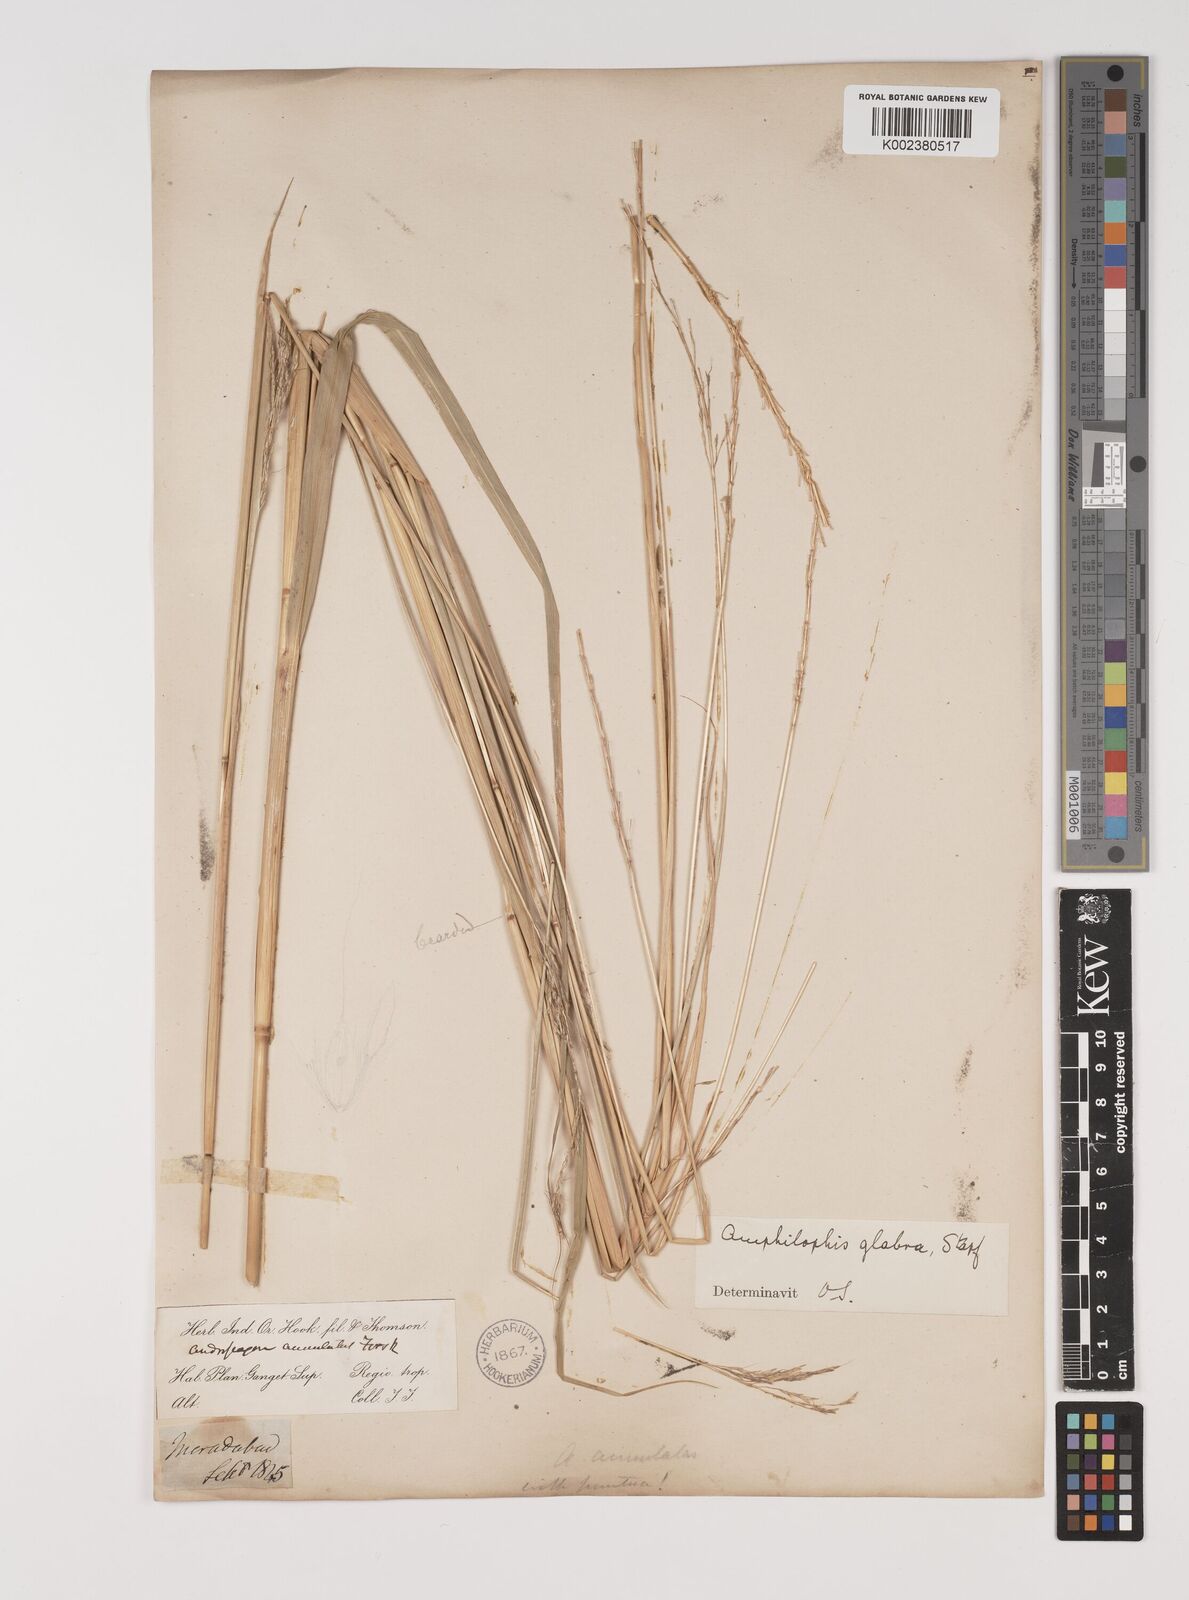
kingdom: Plantae
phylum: Tracheophyta
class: Liliopsida
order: Poales
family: Poaceae
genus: Bothriochloa
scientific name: Bothriochloa bladhii
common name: Caucasian bluestem
